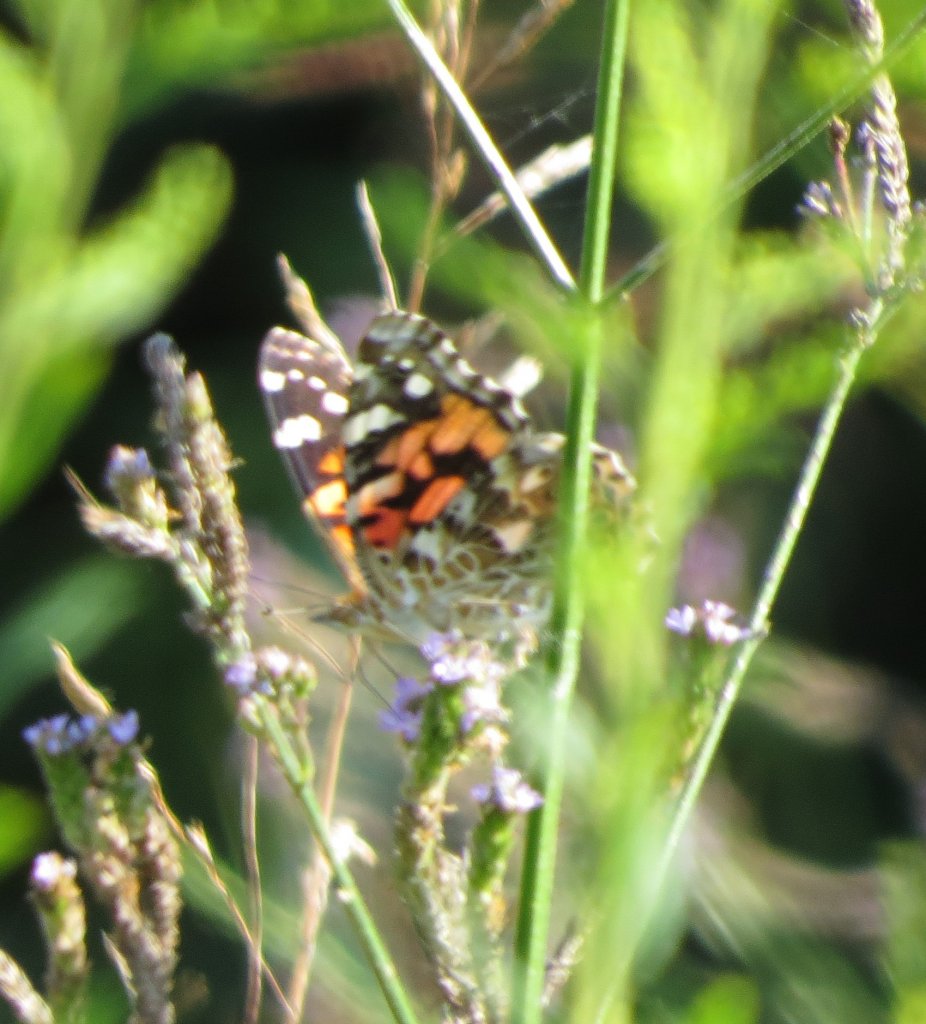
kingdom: Animalia
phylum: Arthropoda
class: Insecta
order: Lepidoptera
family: Nymphalidae
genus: Vanessa
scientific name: Vanessa cardui
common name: Painted Lady
